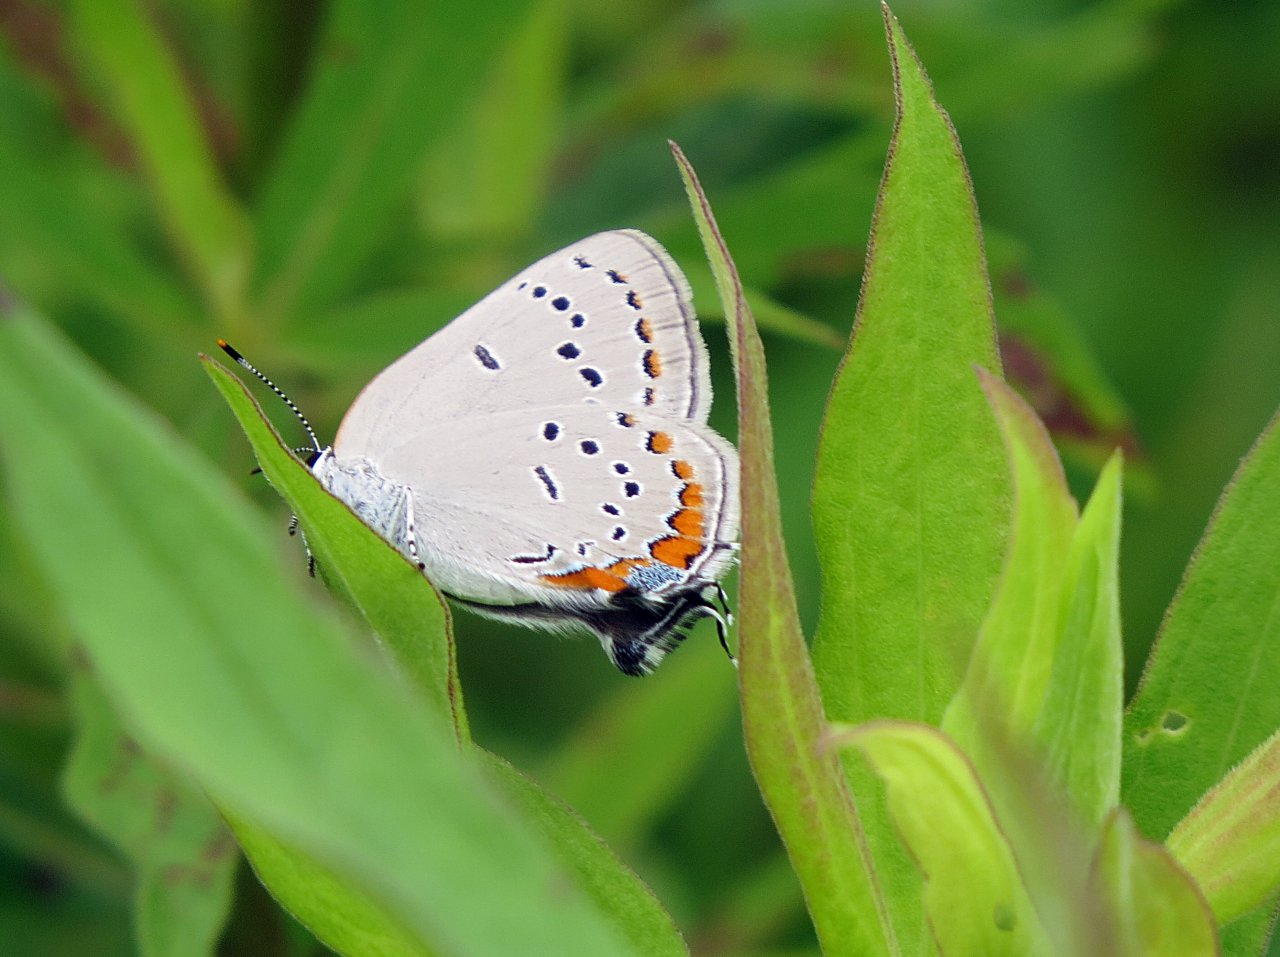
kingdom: Animalia
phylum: Arthropoda
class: Insecta
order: Lepidoptera
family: Lycaenidae
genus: Strymon
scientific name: Strymon acadica
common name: Acadian Hairstreak
